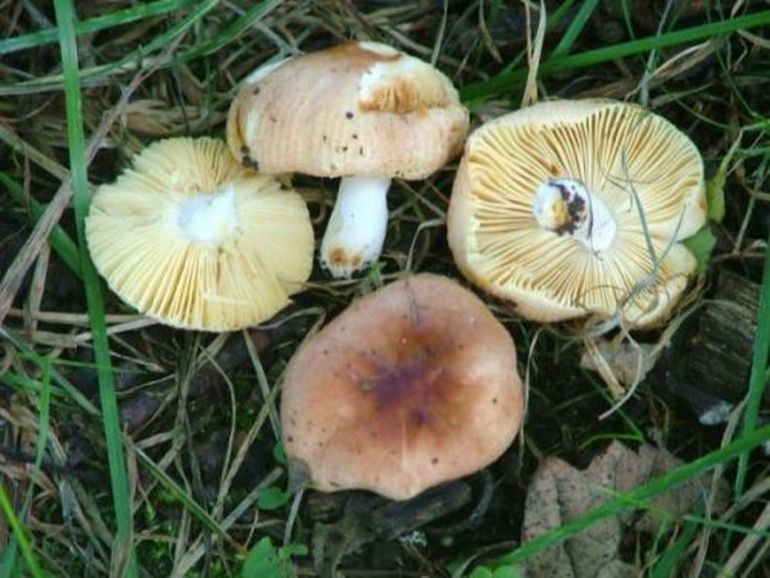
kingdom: Fungi
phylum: Basidiomycota
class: Agaricomycetes
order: Russulales
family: Russulaceae
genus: Russula
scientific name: Russula odorata
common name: duft-skørhat
